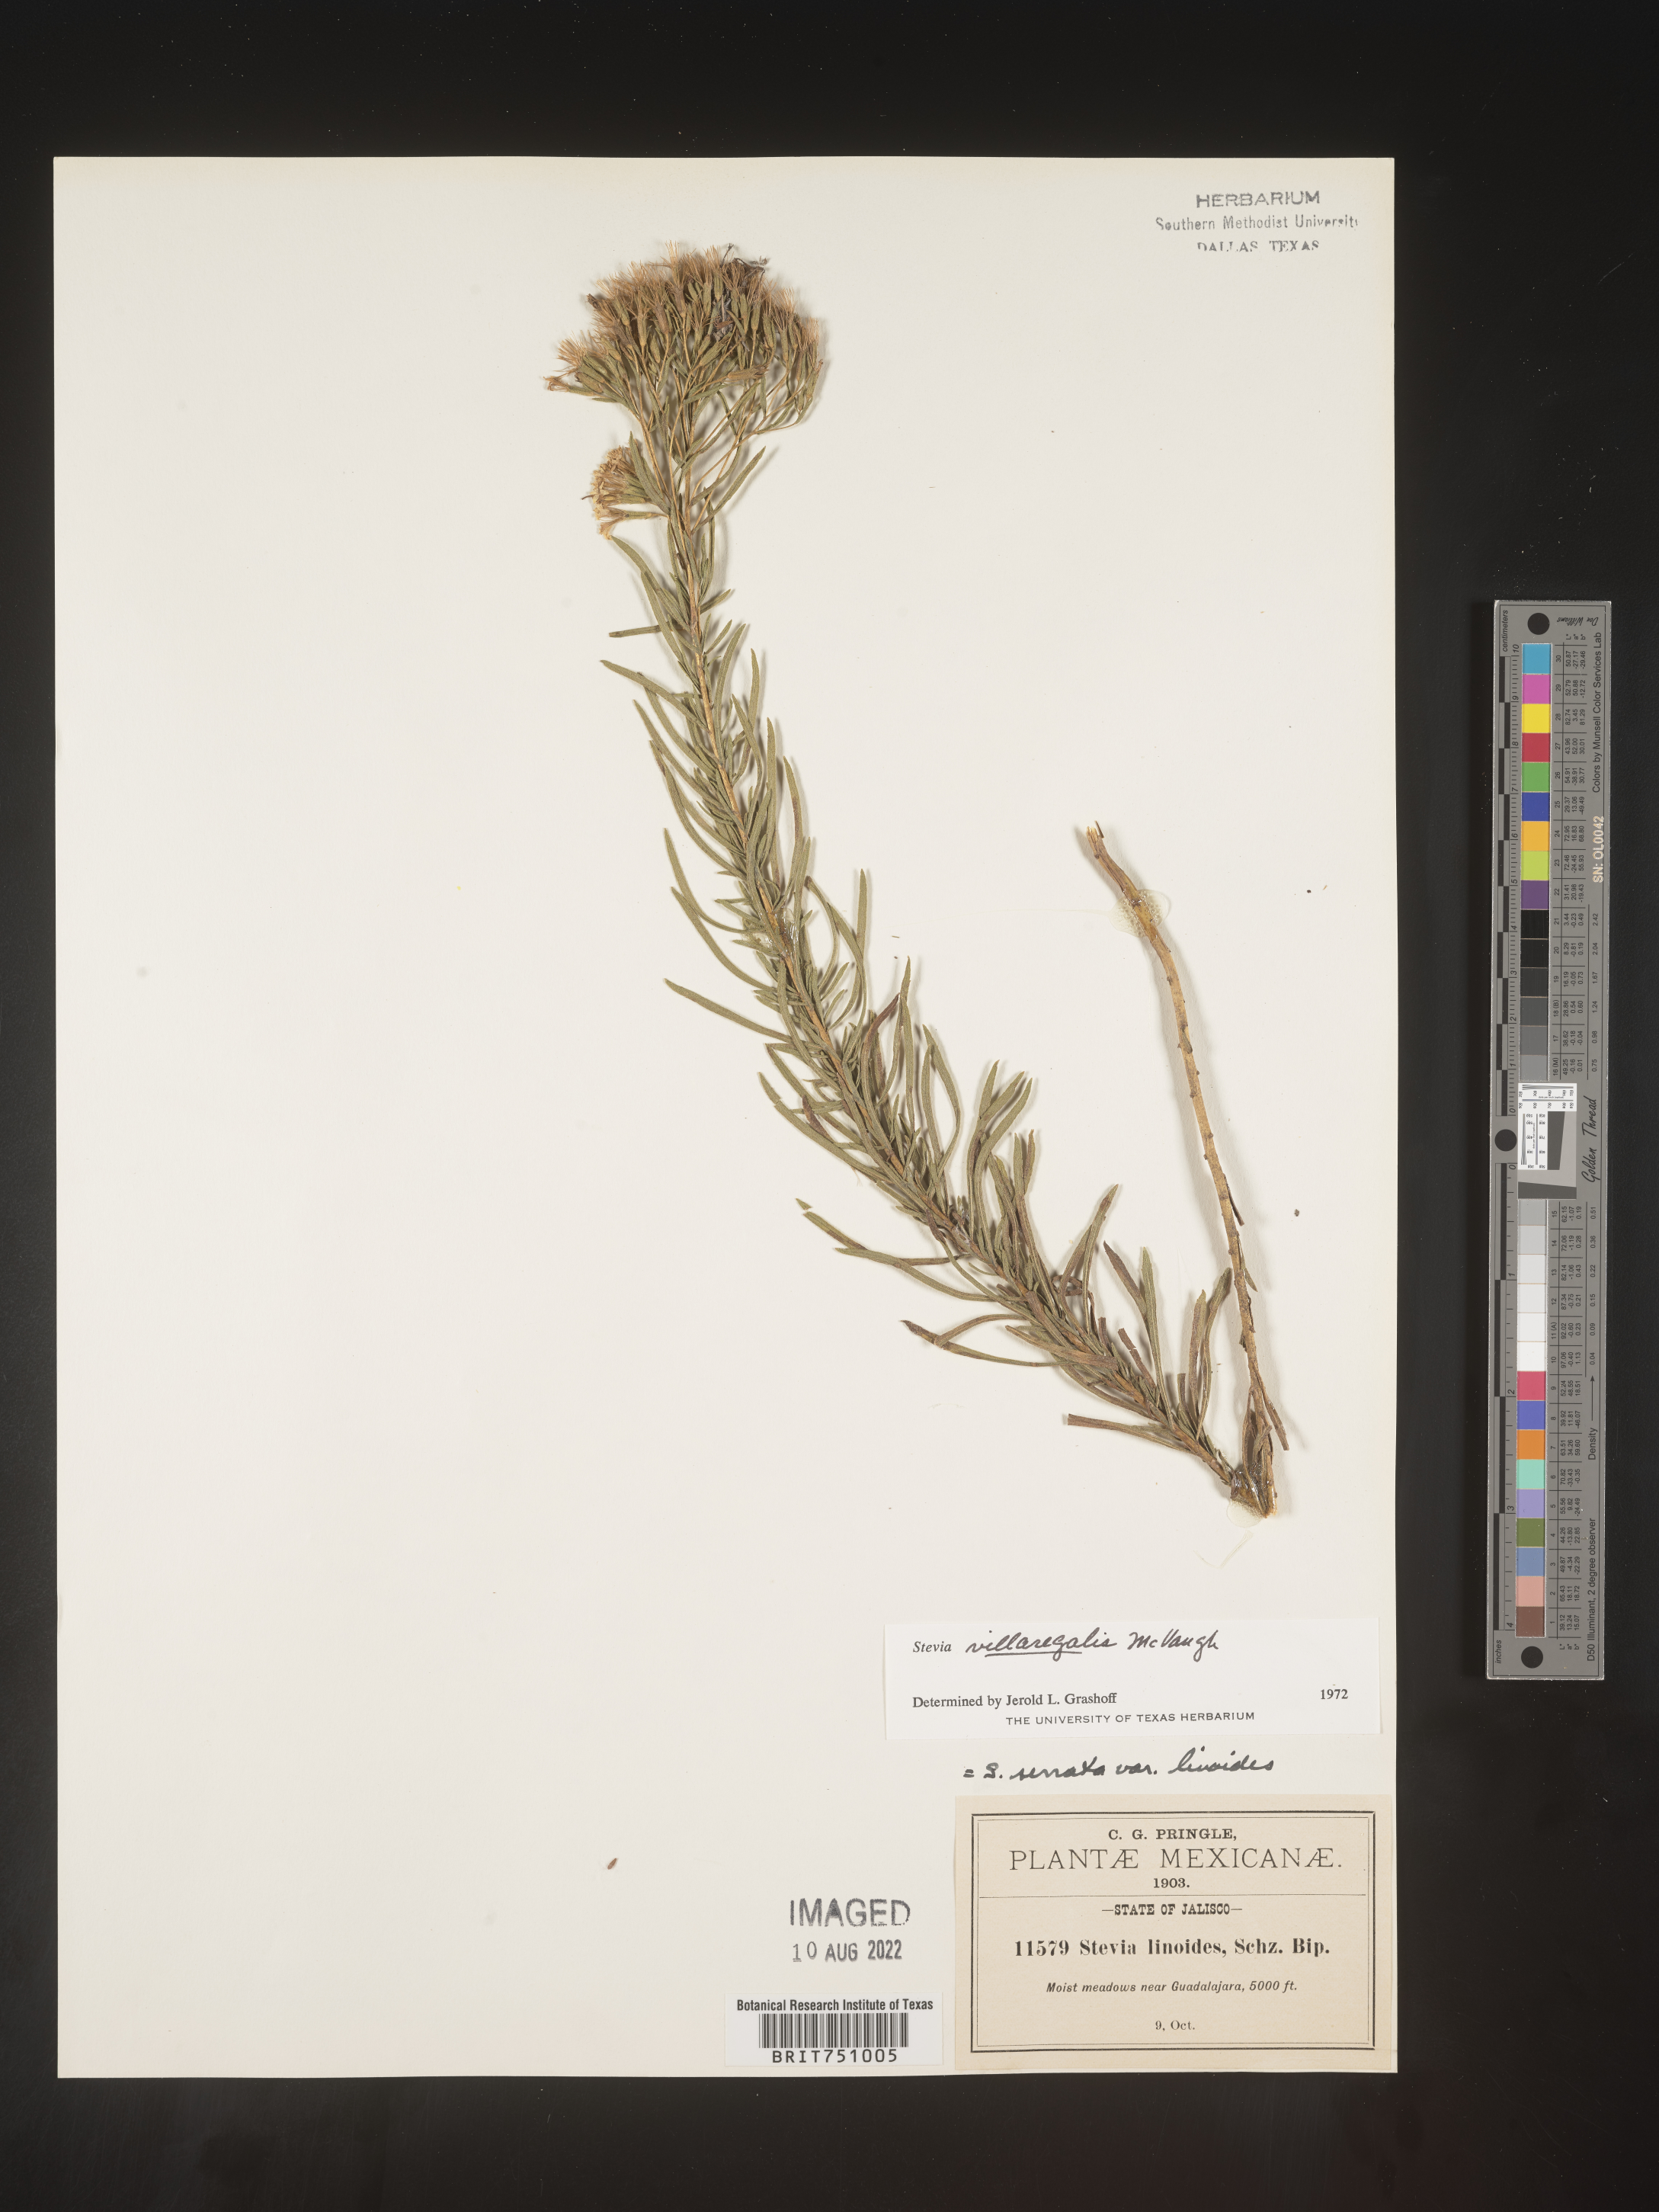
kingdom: Plantae
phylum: Tracheophyta
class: Magnoliopsida
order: Asterales
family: Asteraceae
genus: Stevia
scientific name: Stevia
